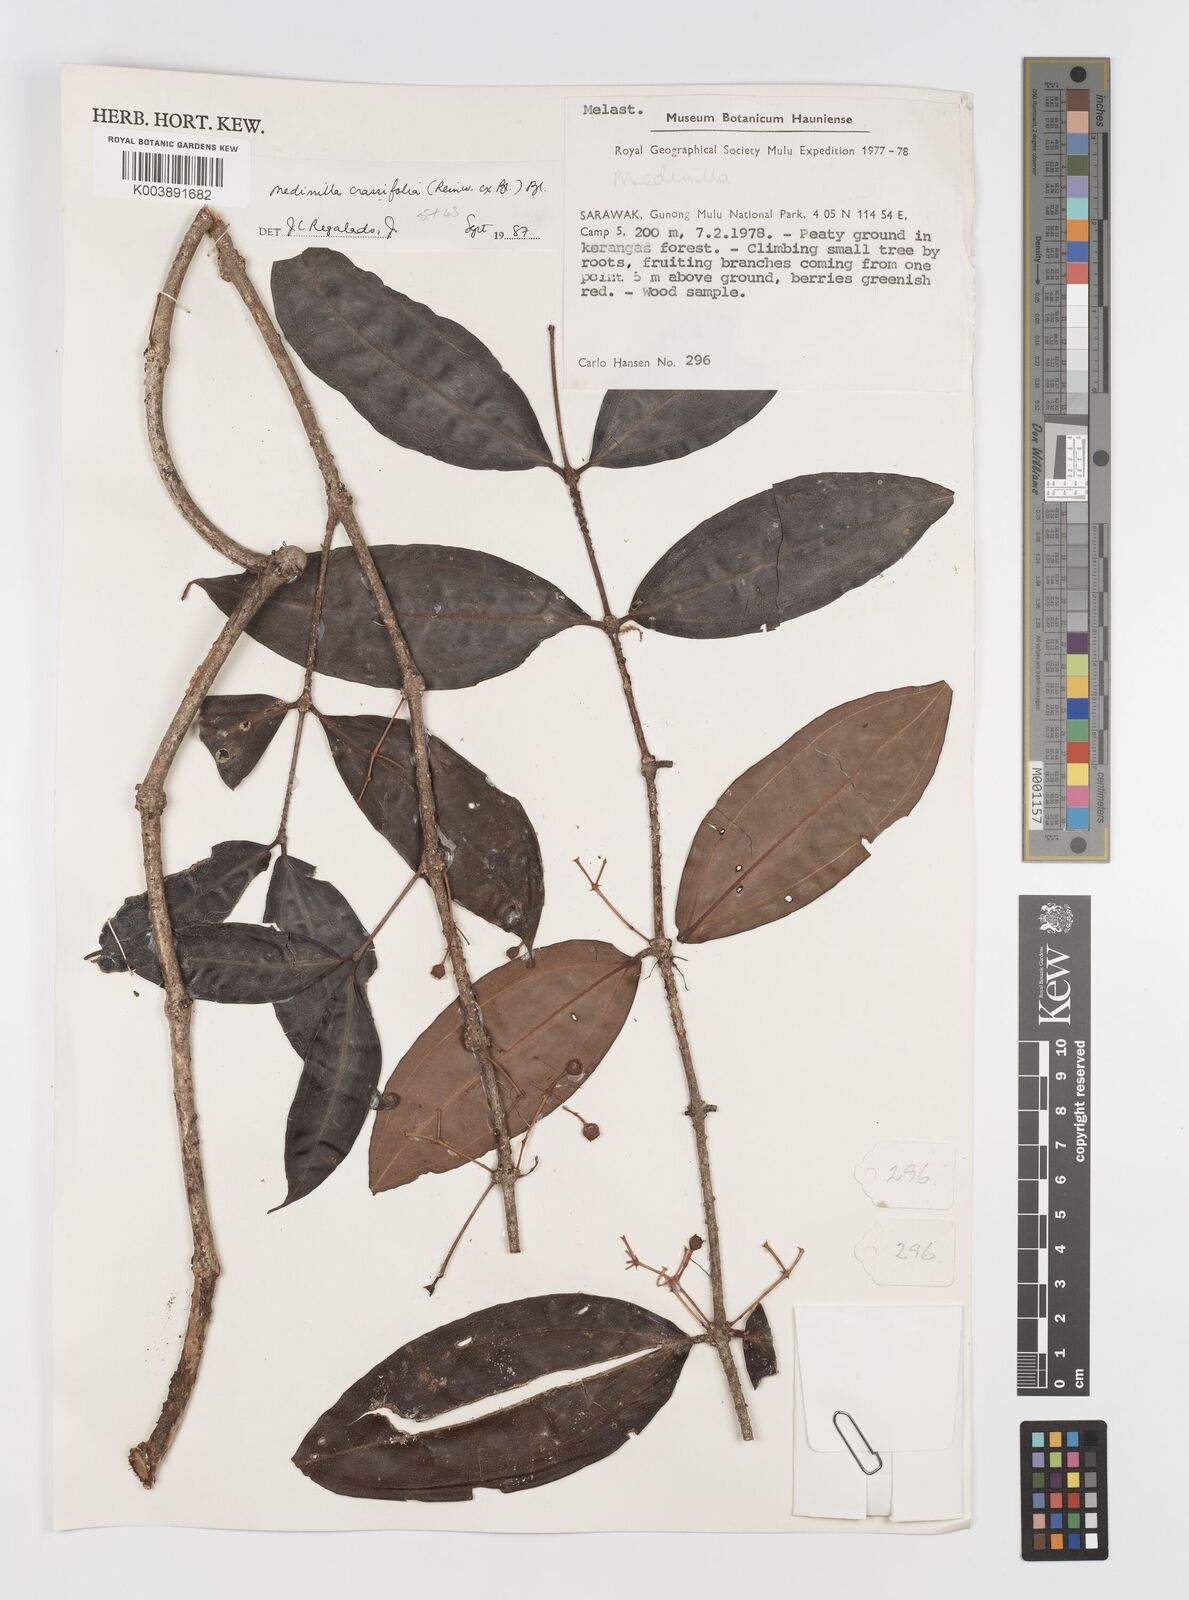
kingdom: Plantae
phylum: Tracheophyta
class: Magnoliopsida
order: Myrtales
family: Melastomataceae
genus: Medinilla
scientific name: Medinilla crassifolia
